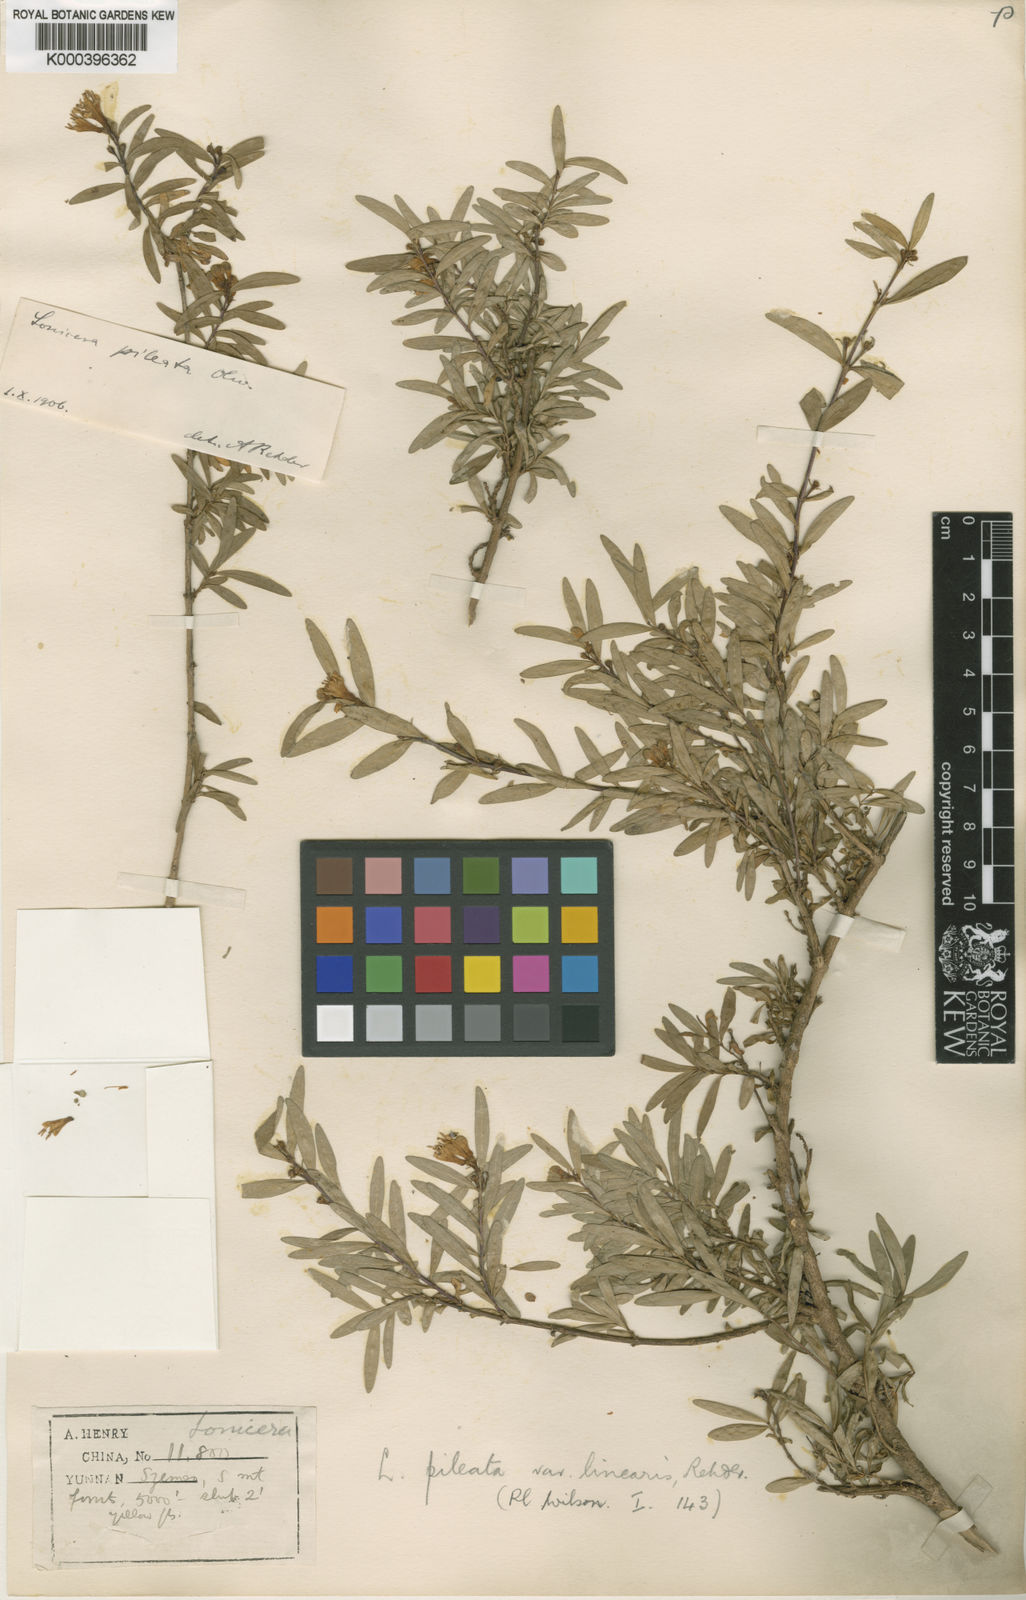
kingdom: Plantae
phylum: Tracheophyta
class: Magnoliopsida
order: Dipsacales
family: Caprifoliaceae
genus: Lonicera
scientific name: Lonicera pileata
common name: Box-leaved honeysuckle
